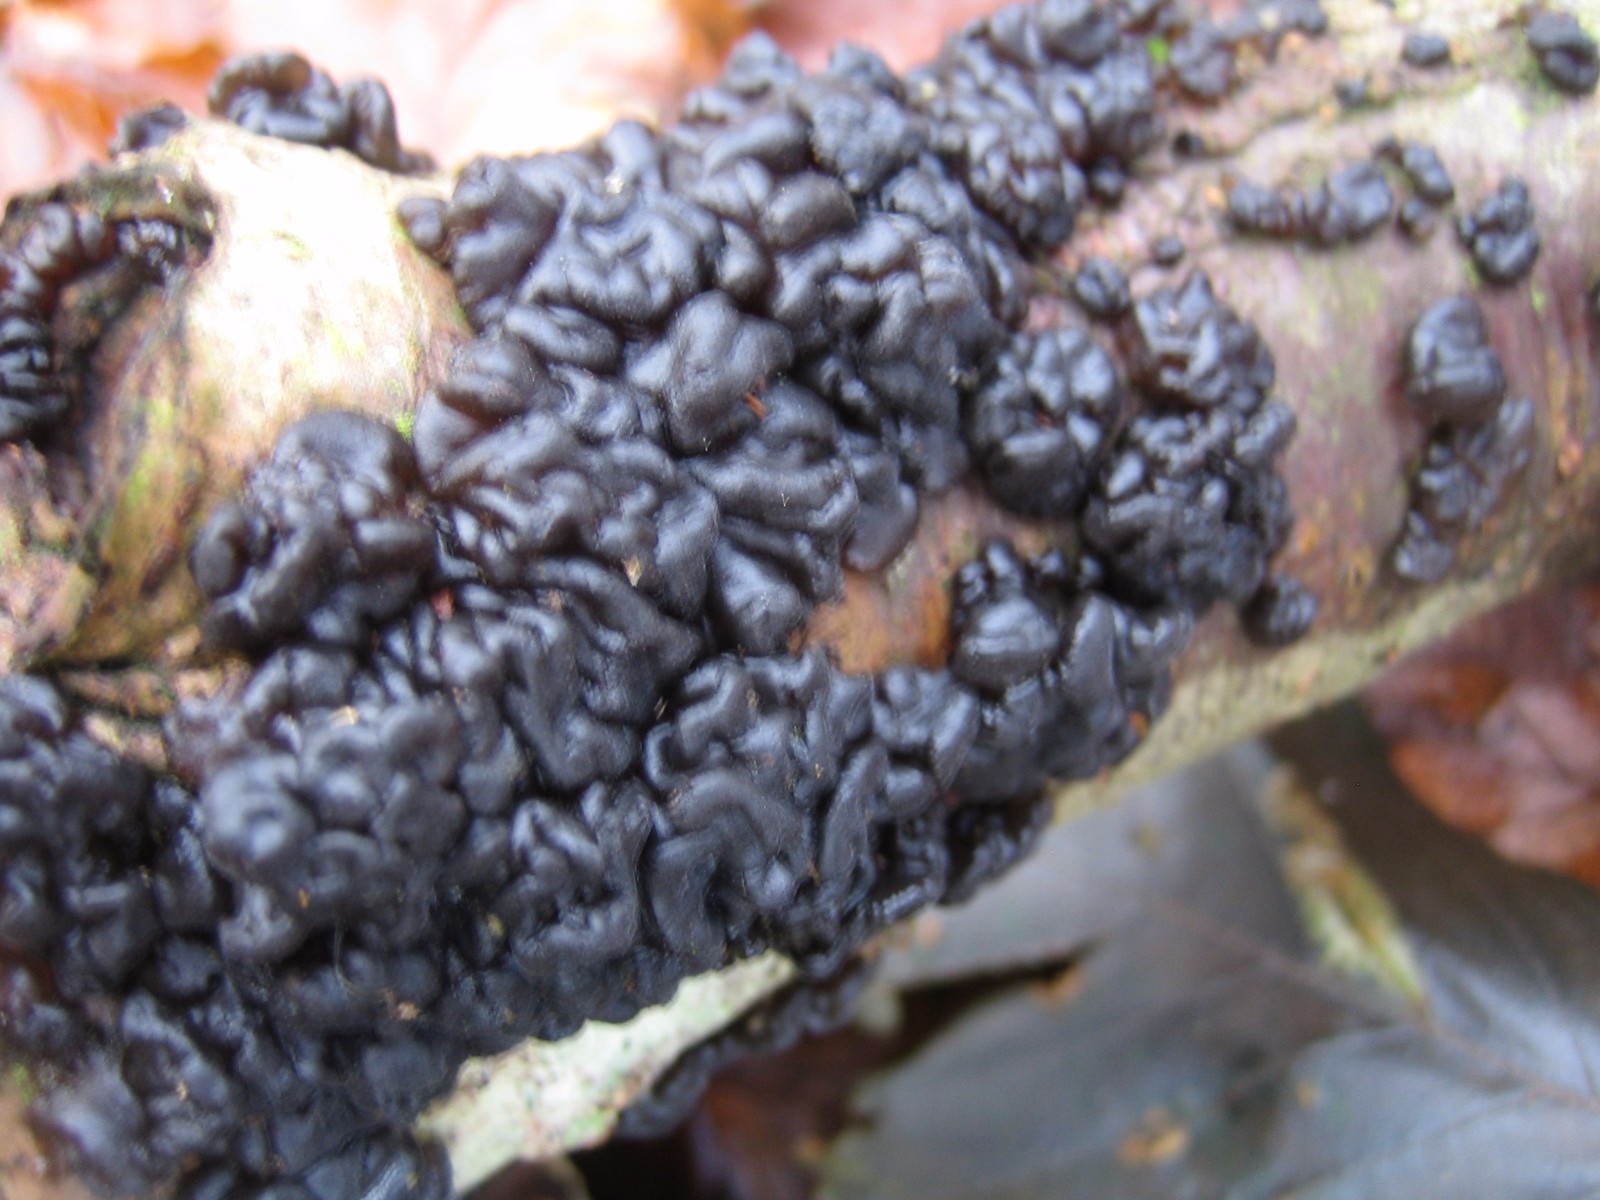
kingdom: Fungi
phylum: Basidiomycota
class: Agaricomycetes
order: Auriculariales
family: Auriculariaceae
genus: Exidia
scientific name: Exidia nigricans
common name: almindelig bævretop
